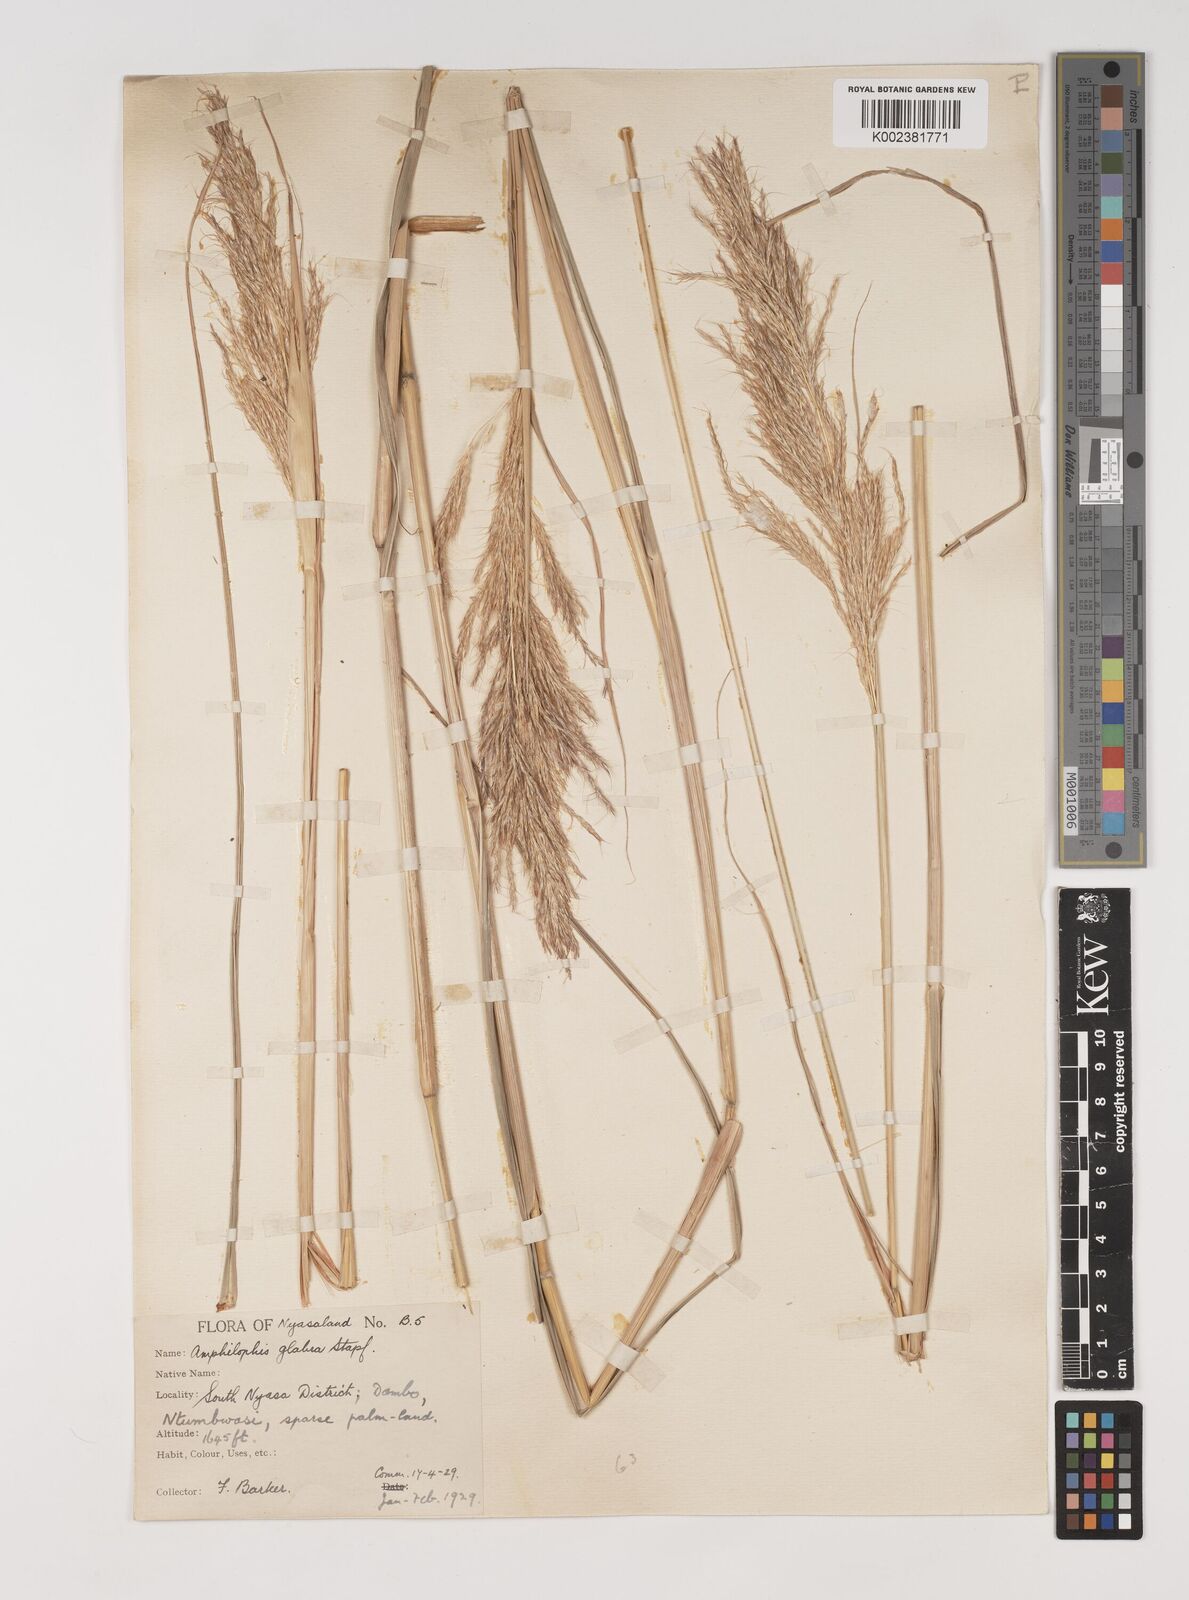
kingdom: Plantae
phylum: Tracheophyta
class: Liliopsida
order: Poales
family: Poaceae
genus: Bothriochloa
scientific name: Bothriochloa bladhii
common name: Caucasian bluestem
